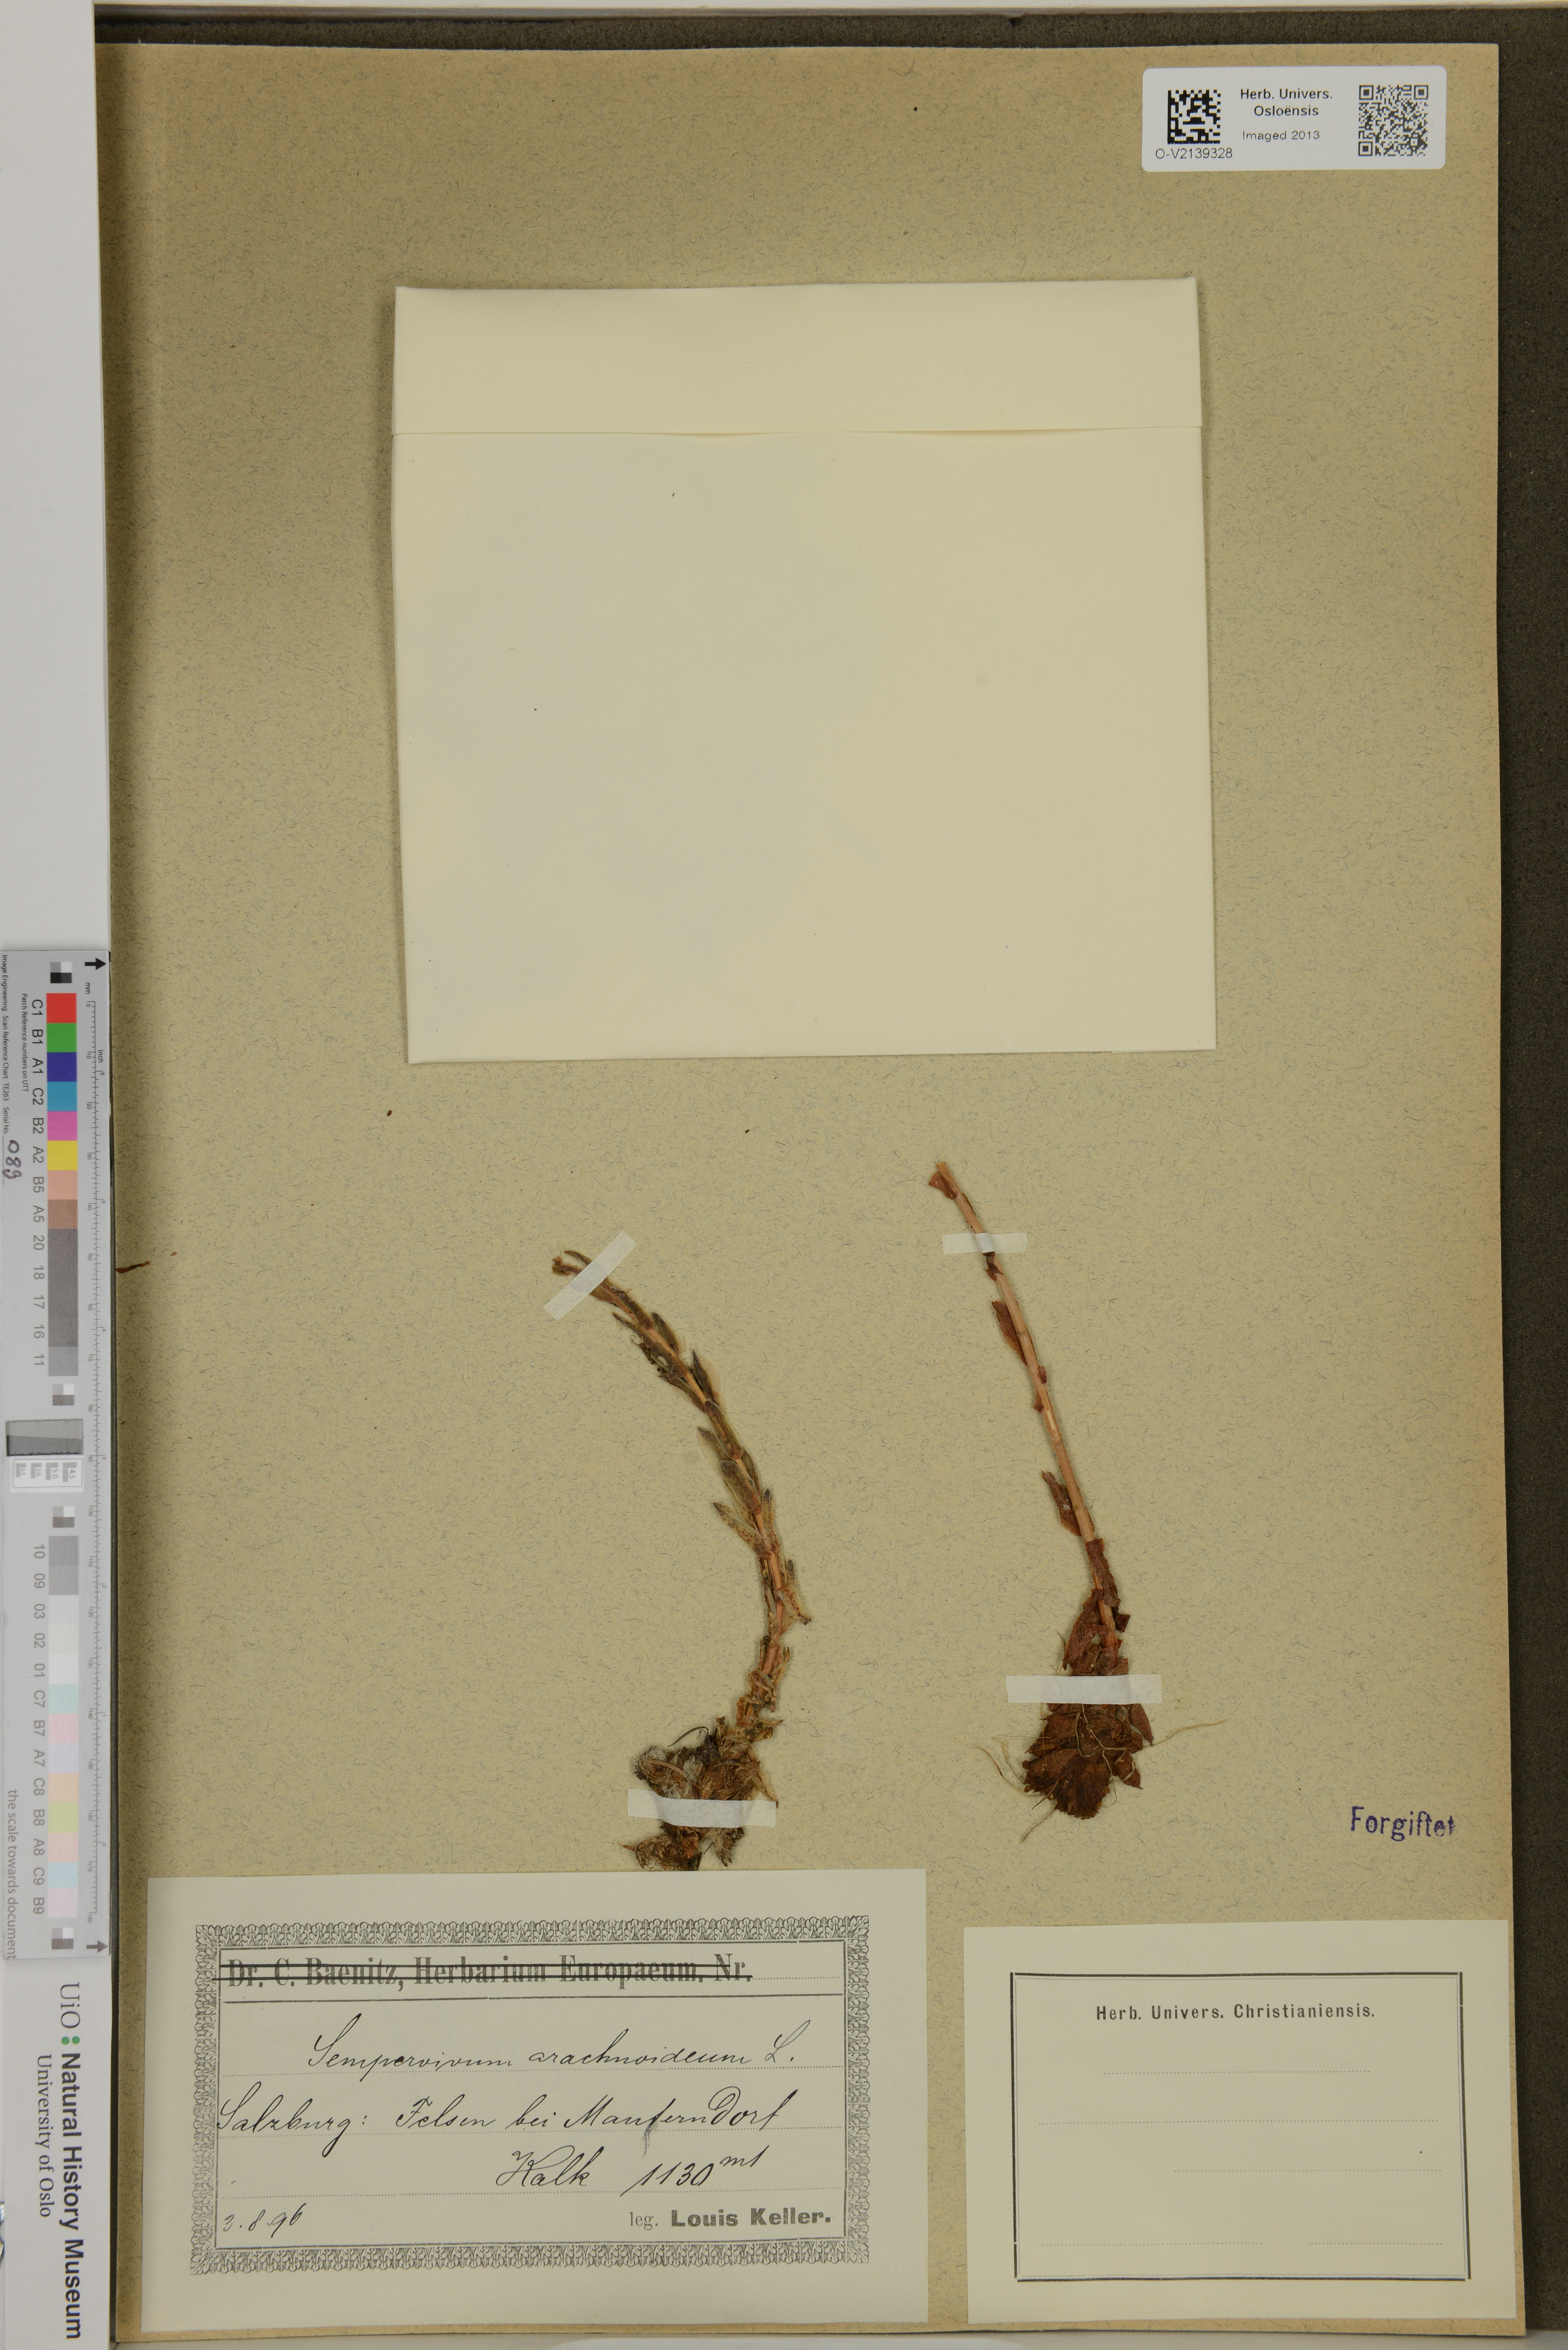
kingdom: Plantae
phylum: Tracheophyta
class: Magnoliopsida
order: Saxifragales
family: Crassulaceae
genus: Sempervivum
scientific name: Sempervivum arachnoideum
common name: Cobweb house-leek
